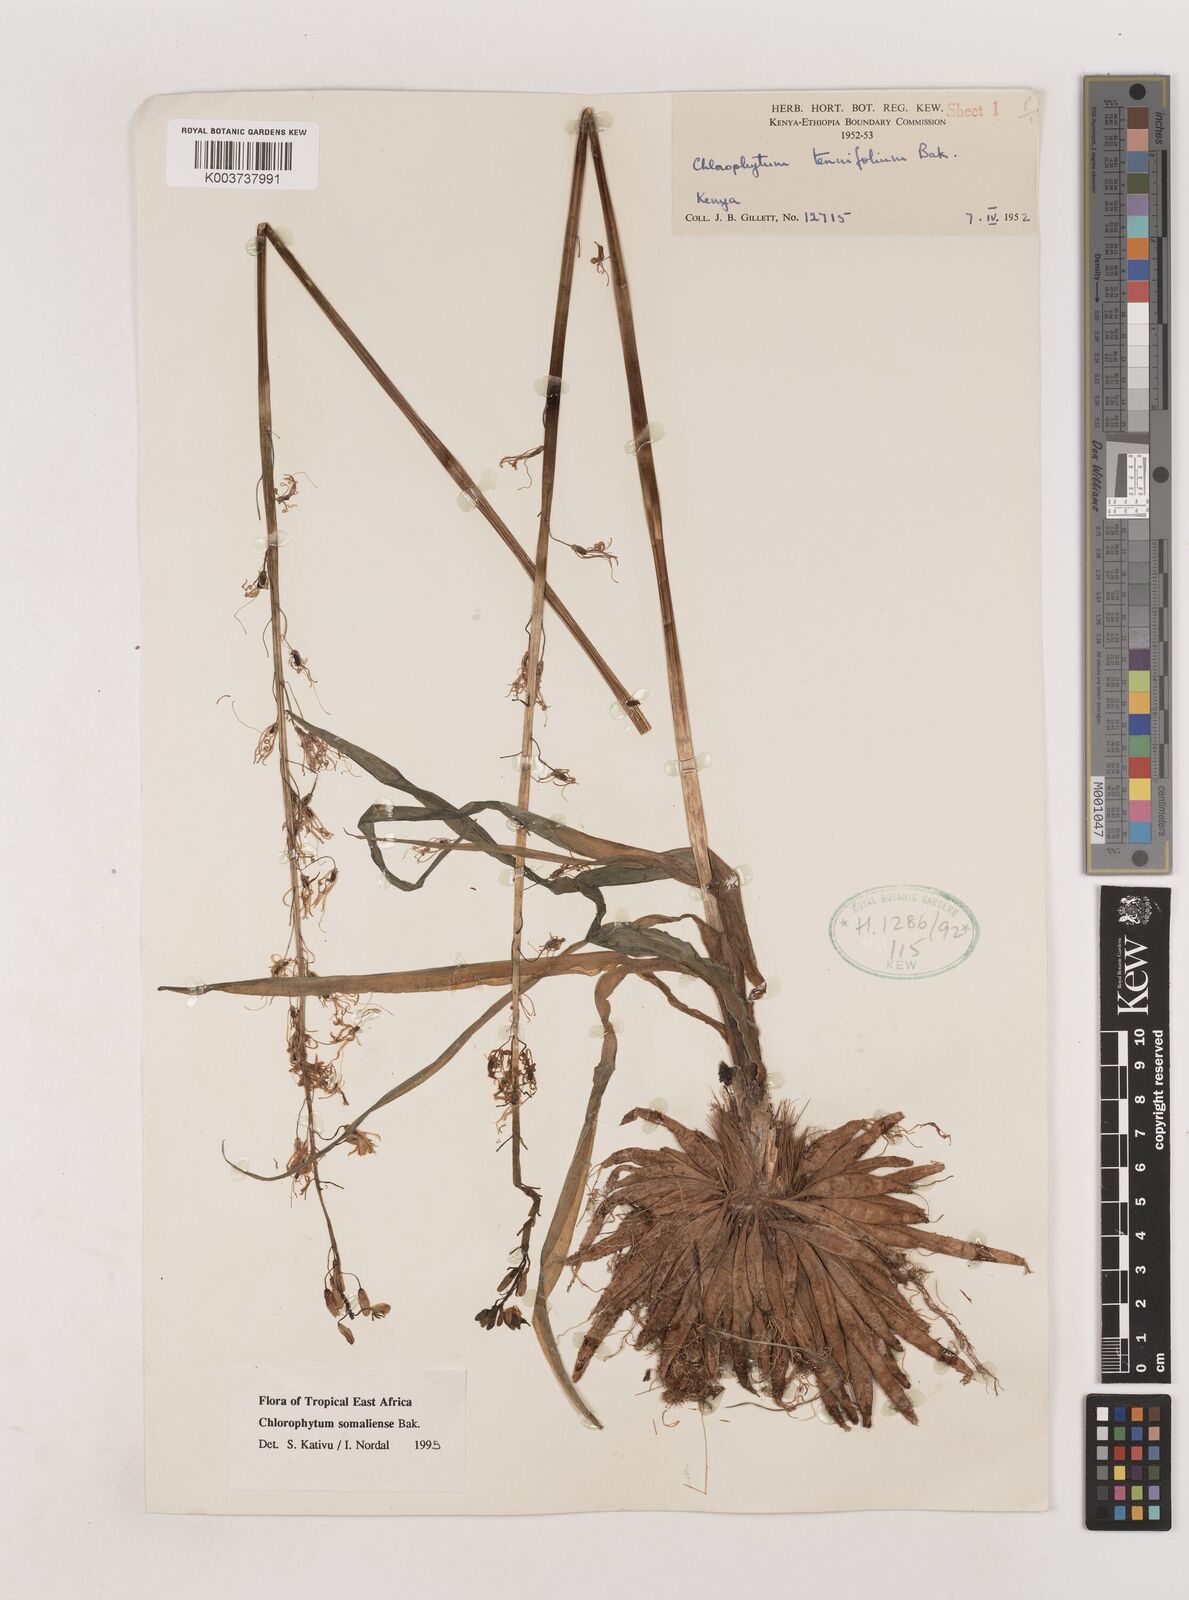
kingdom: Plantae
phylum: Tracheophyta
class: Liliopsida
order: Asparagales
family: Asparagaceae
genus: Chlorophytum
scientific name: Chlorophytum somaliense
